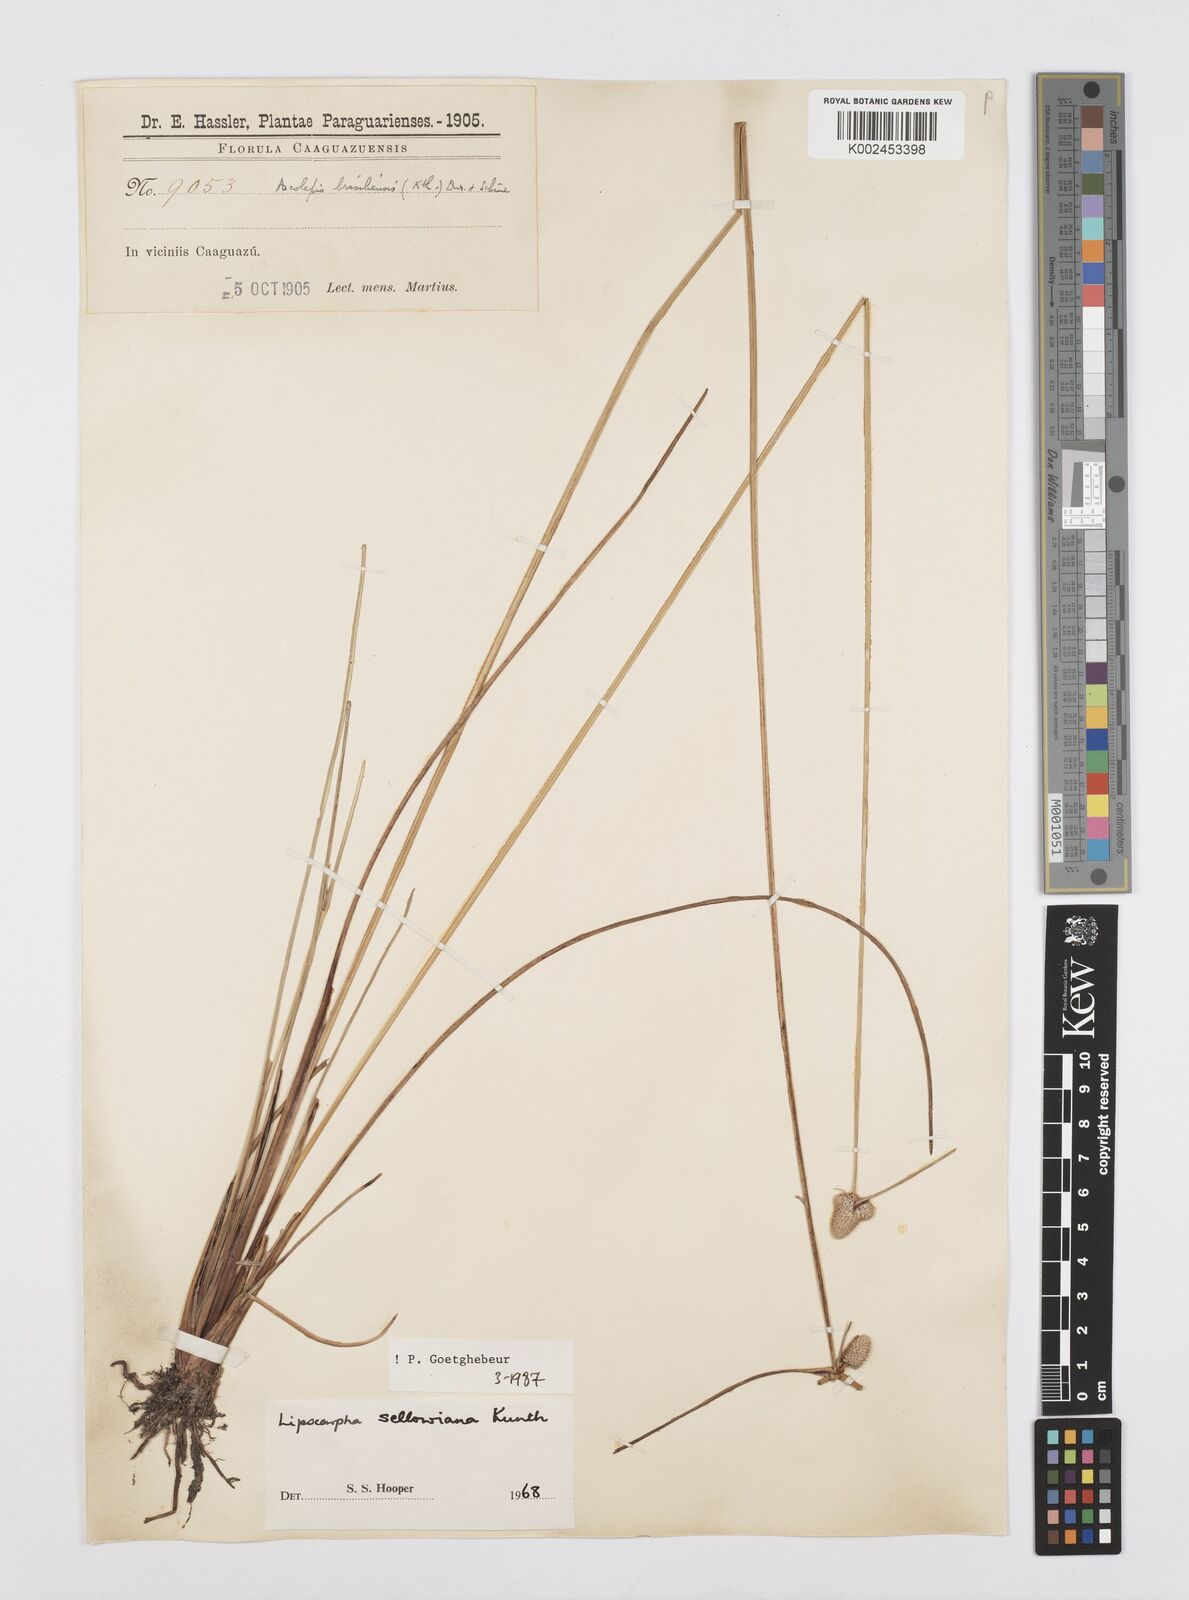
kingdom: Plantae
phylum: Tracheophyta
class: Liliopsida
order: Poales
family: Cyperaceae
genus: Cyperus
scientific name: Cyperus lanceolatus
